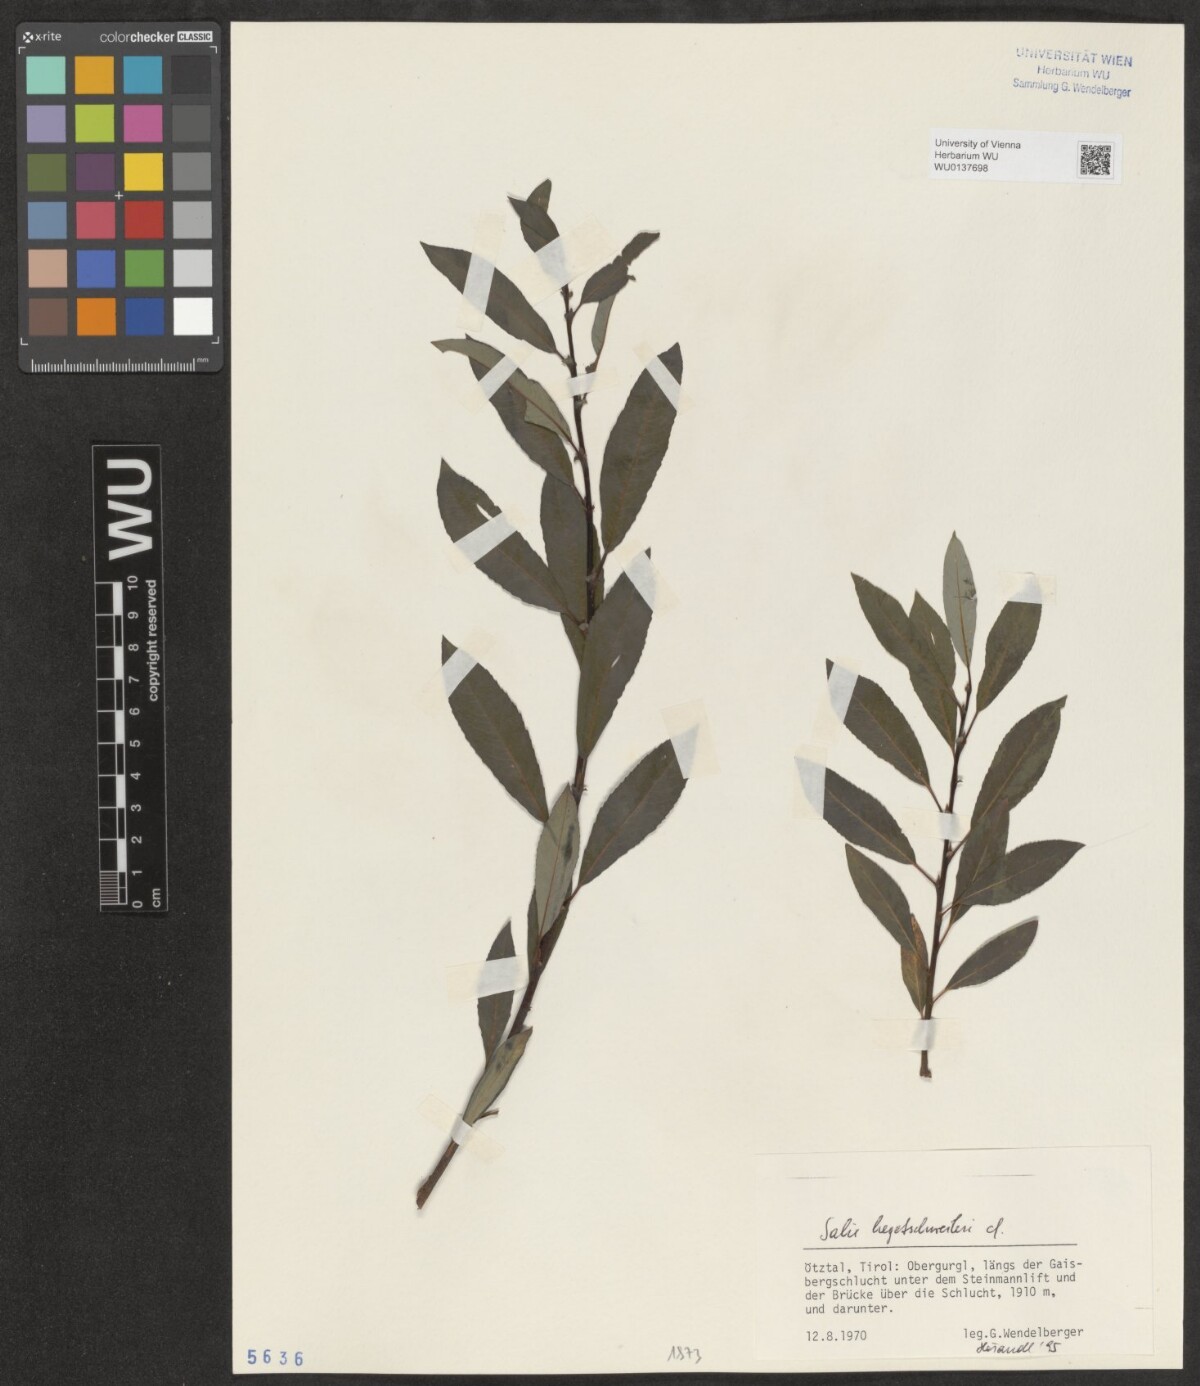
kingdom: Plantae
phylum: Tracheophyta
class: Magnoliopsida
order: Malpighiales
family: Salicaceae
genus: Salix
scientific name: Salix hegetschweileri
